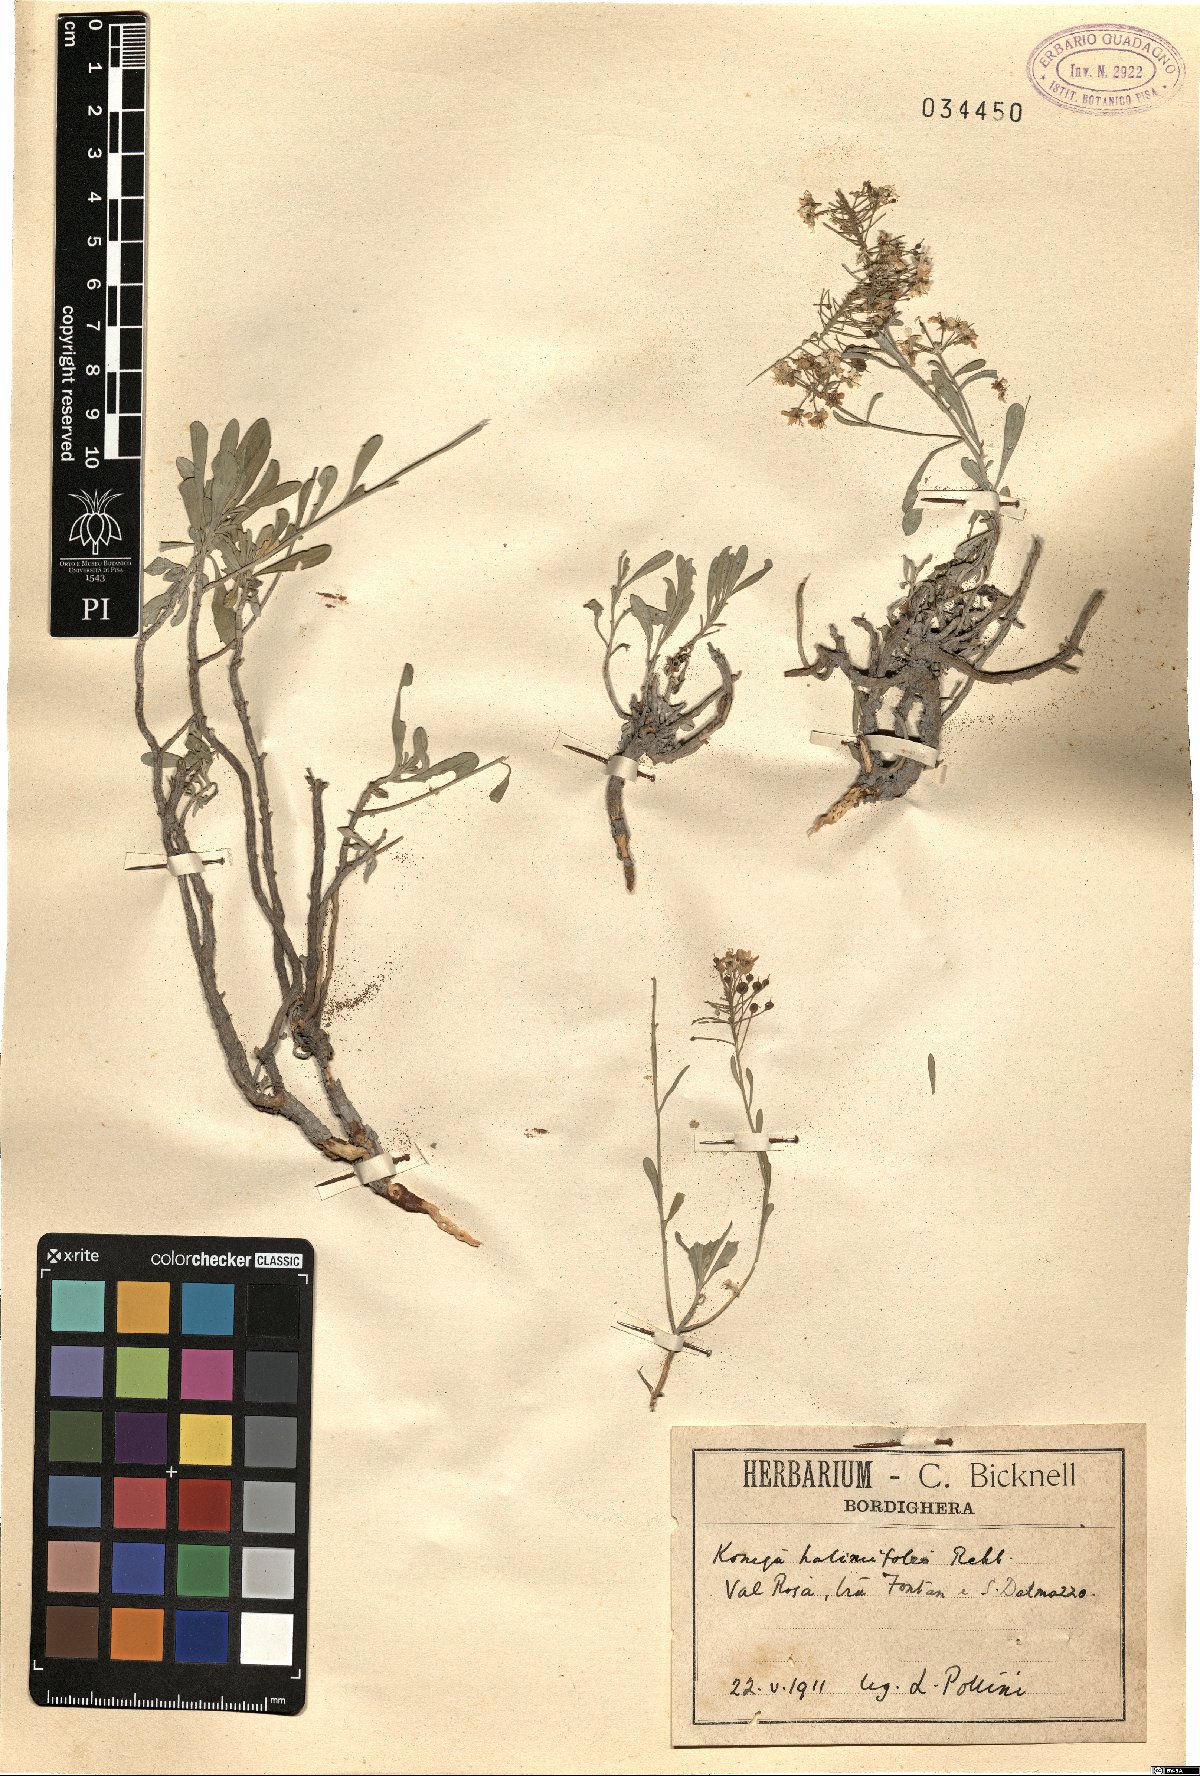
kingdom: Plantae
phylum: Tracheophyta
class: Magnoliopsida
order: Brassicales
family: Brassicaceae
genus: Lobularia
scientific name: Lobularia maritima
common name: Sweet alison
